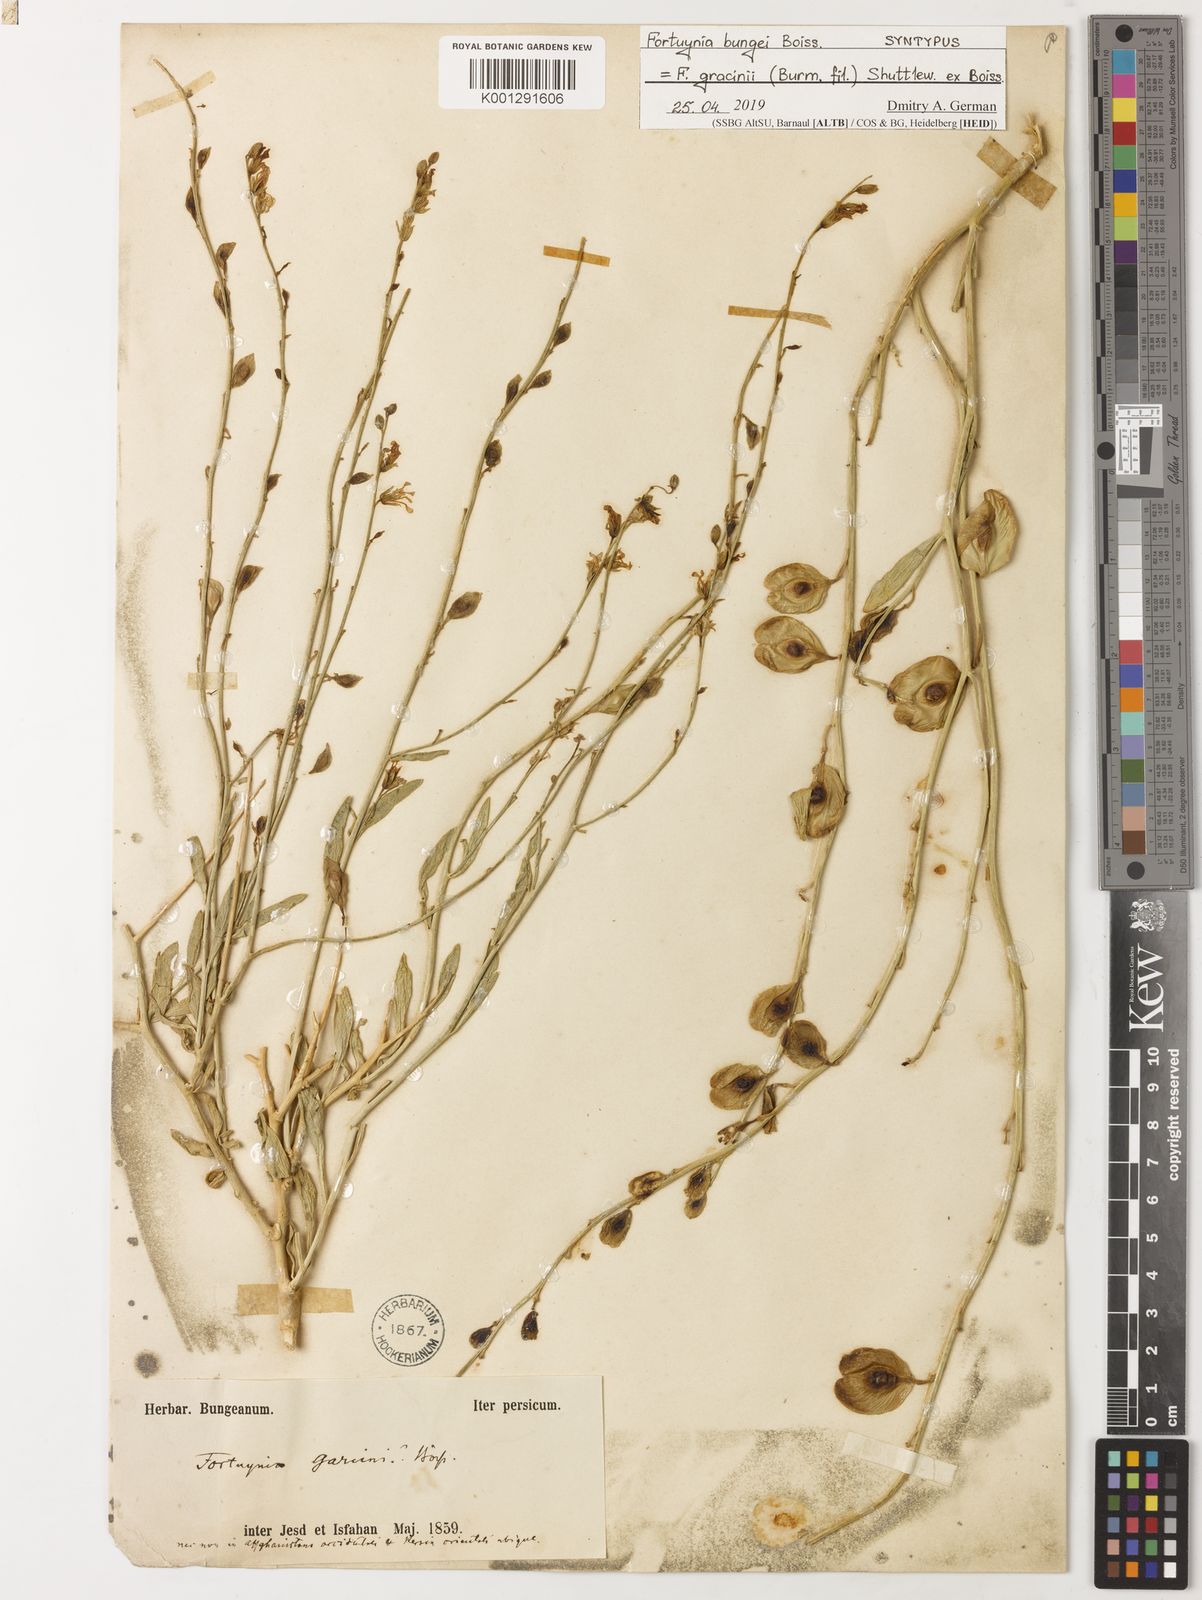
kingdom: Plantae
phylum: Tracheophyta
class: Magnoliopsida
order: Brassicales
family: Brassicaceae
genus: Fortuynia
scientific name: Fortuynia
